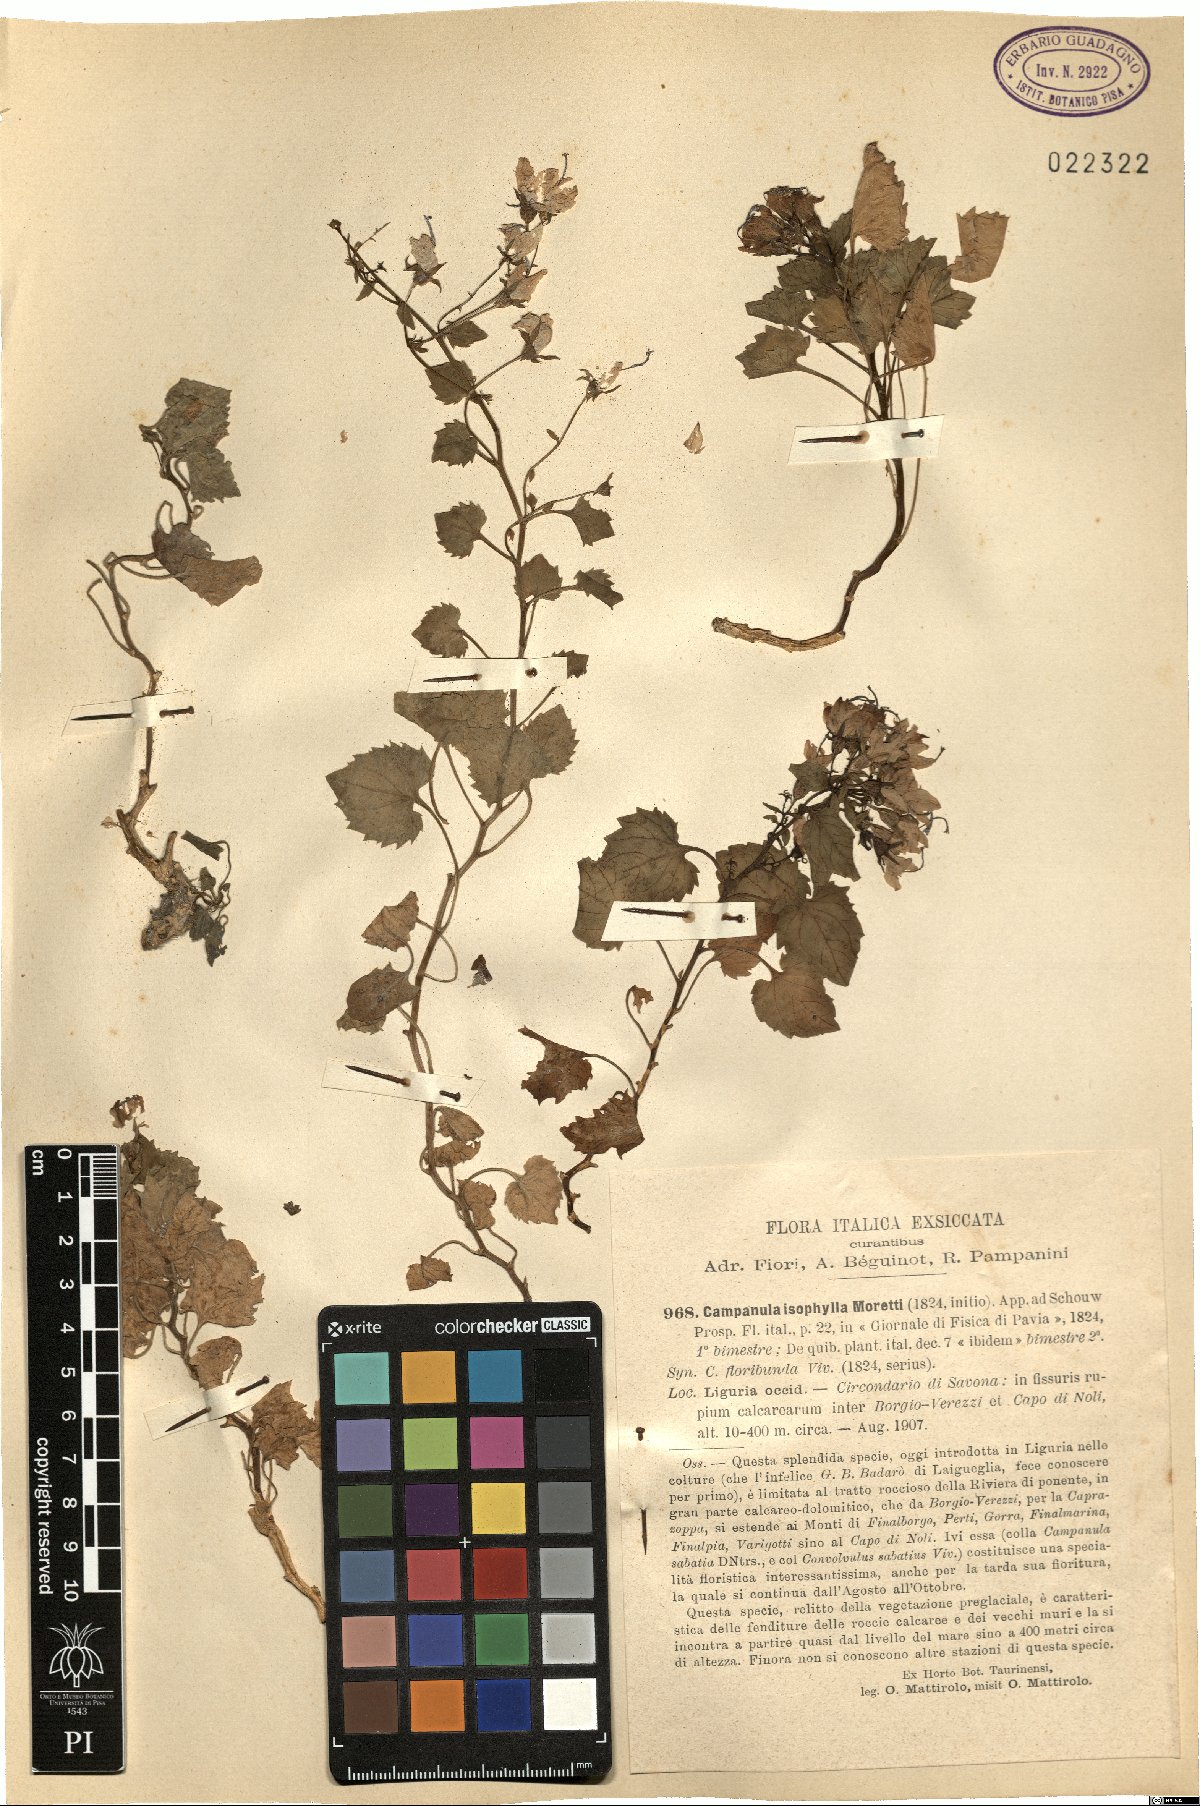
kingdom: Plantae
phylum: Tracheophyta
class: Magnoliopsida
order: Asterales
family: Campanulaceae
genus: Campanula
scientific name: Campanula isophylla
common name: Falling-stars
